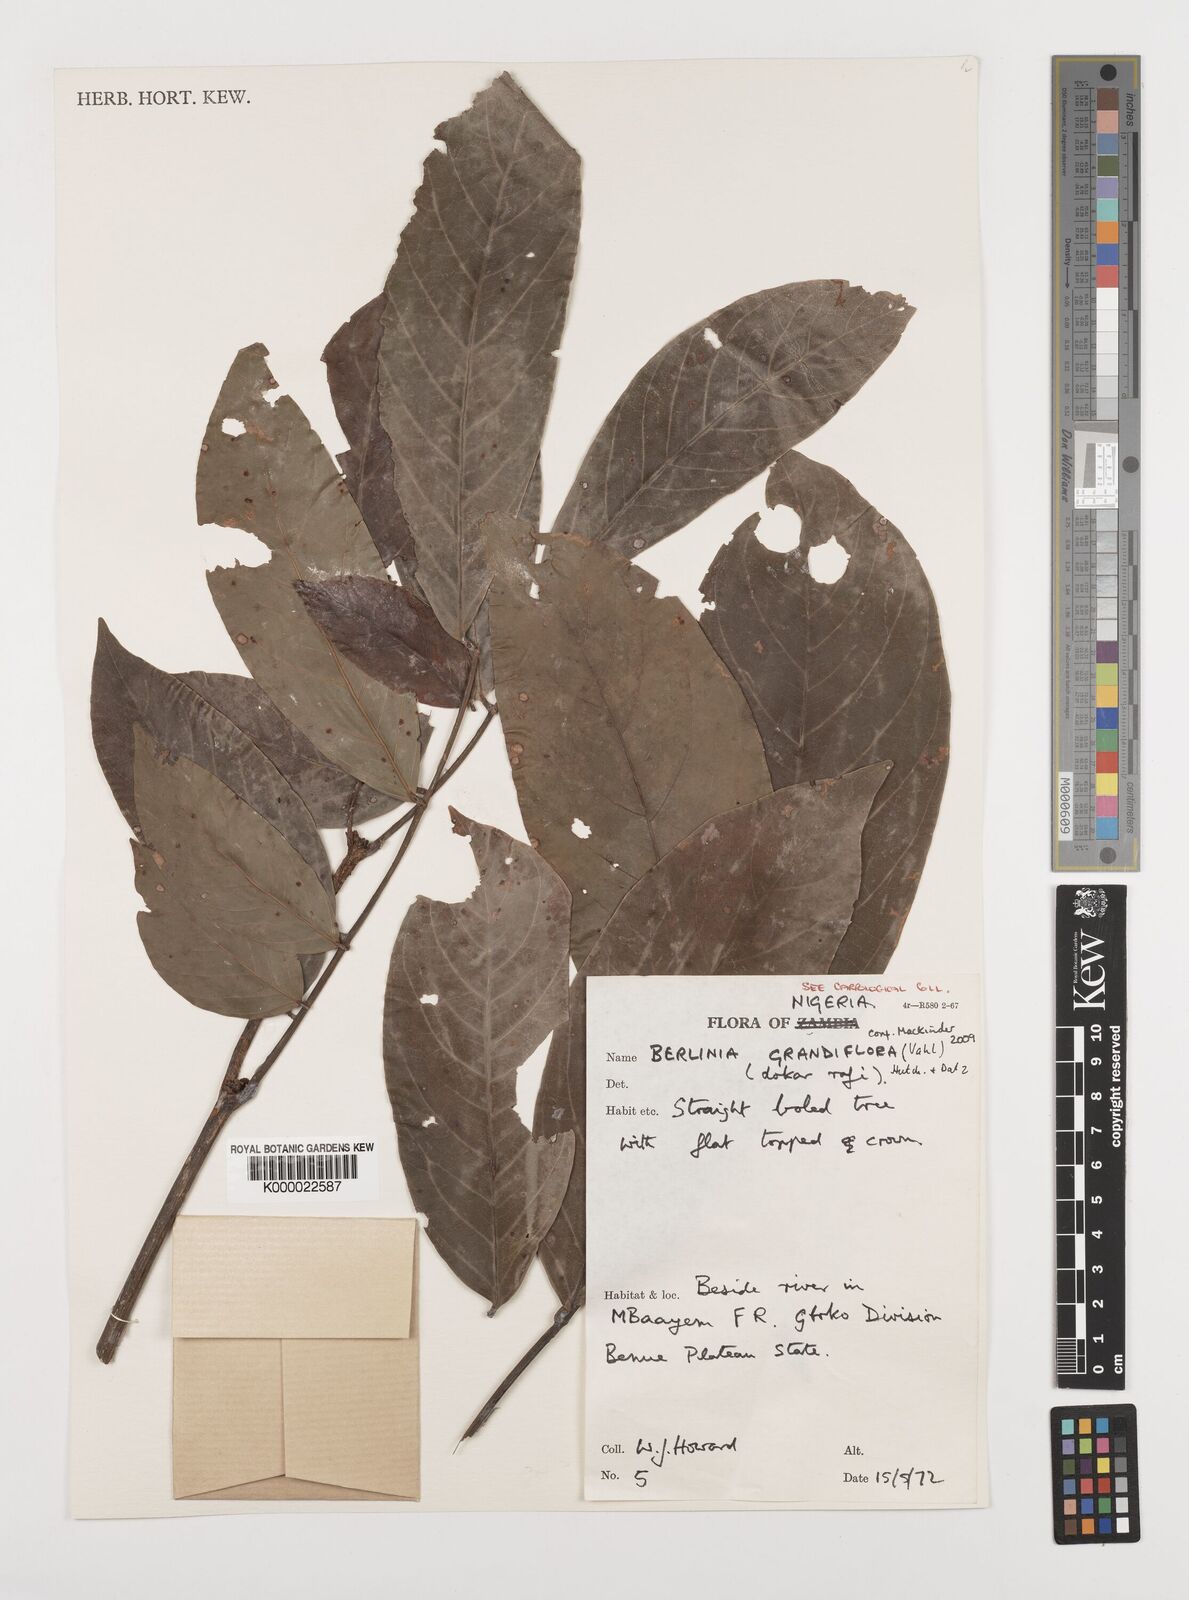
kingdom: Plantae
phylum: Tracheophyta
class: Magnoliopsida
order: Fabales
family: Fabaceae
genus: Berlinia
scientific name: Berlinia grandiflora
